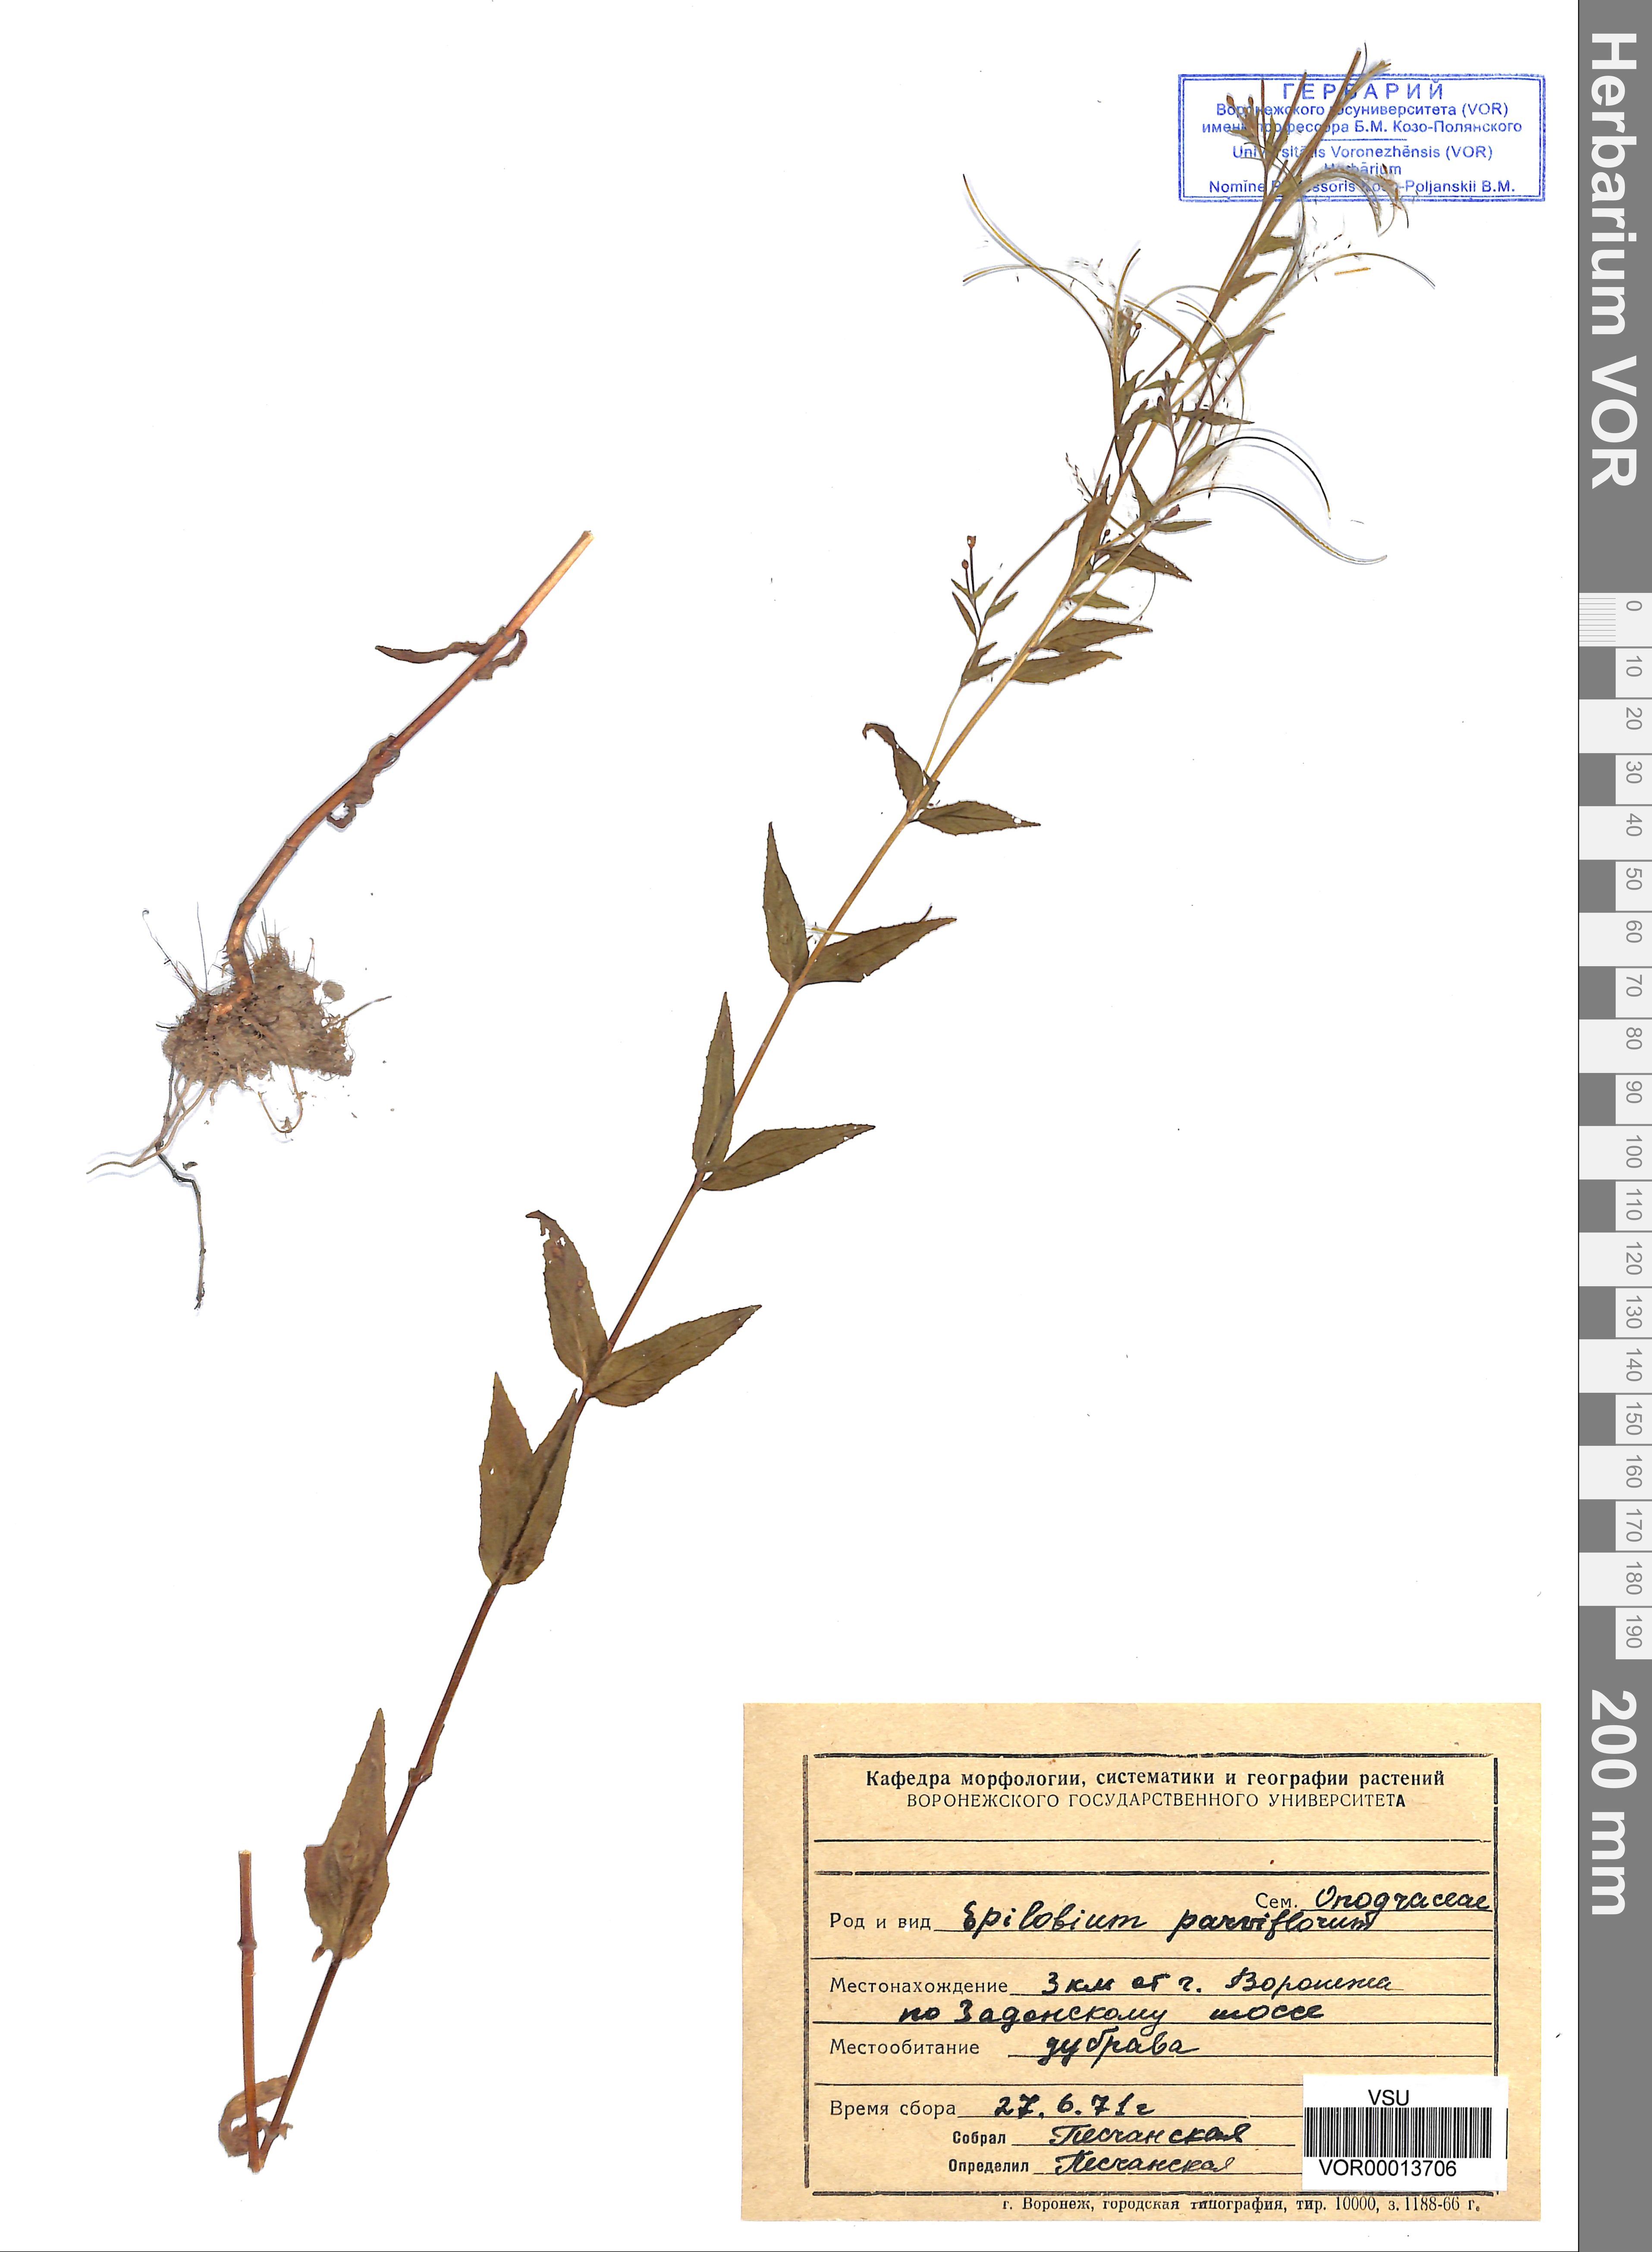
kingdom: Plantae
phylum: Tracheophyta
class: Magnoliopsida
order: Myrtales
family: Onagraceae
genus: Epilobium
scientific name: Epilobium parviflorum
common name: Hoary willowherb
